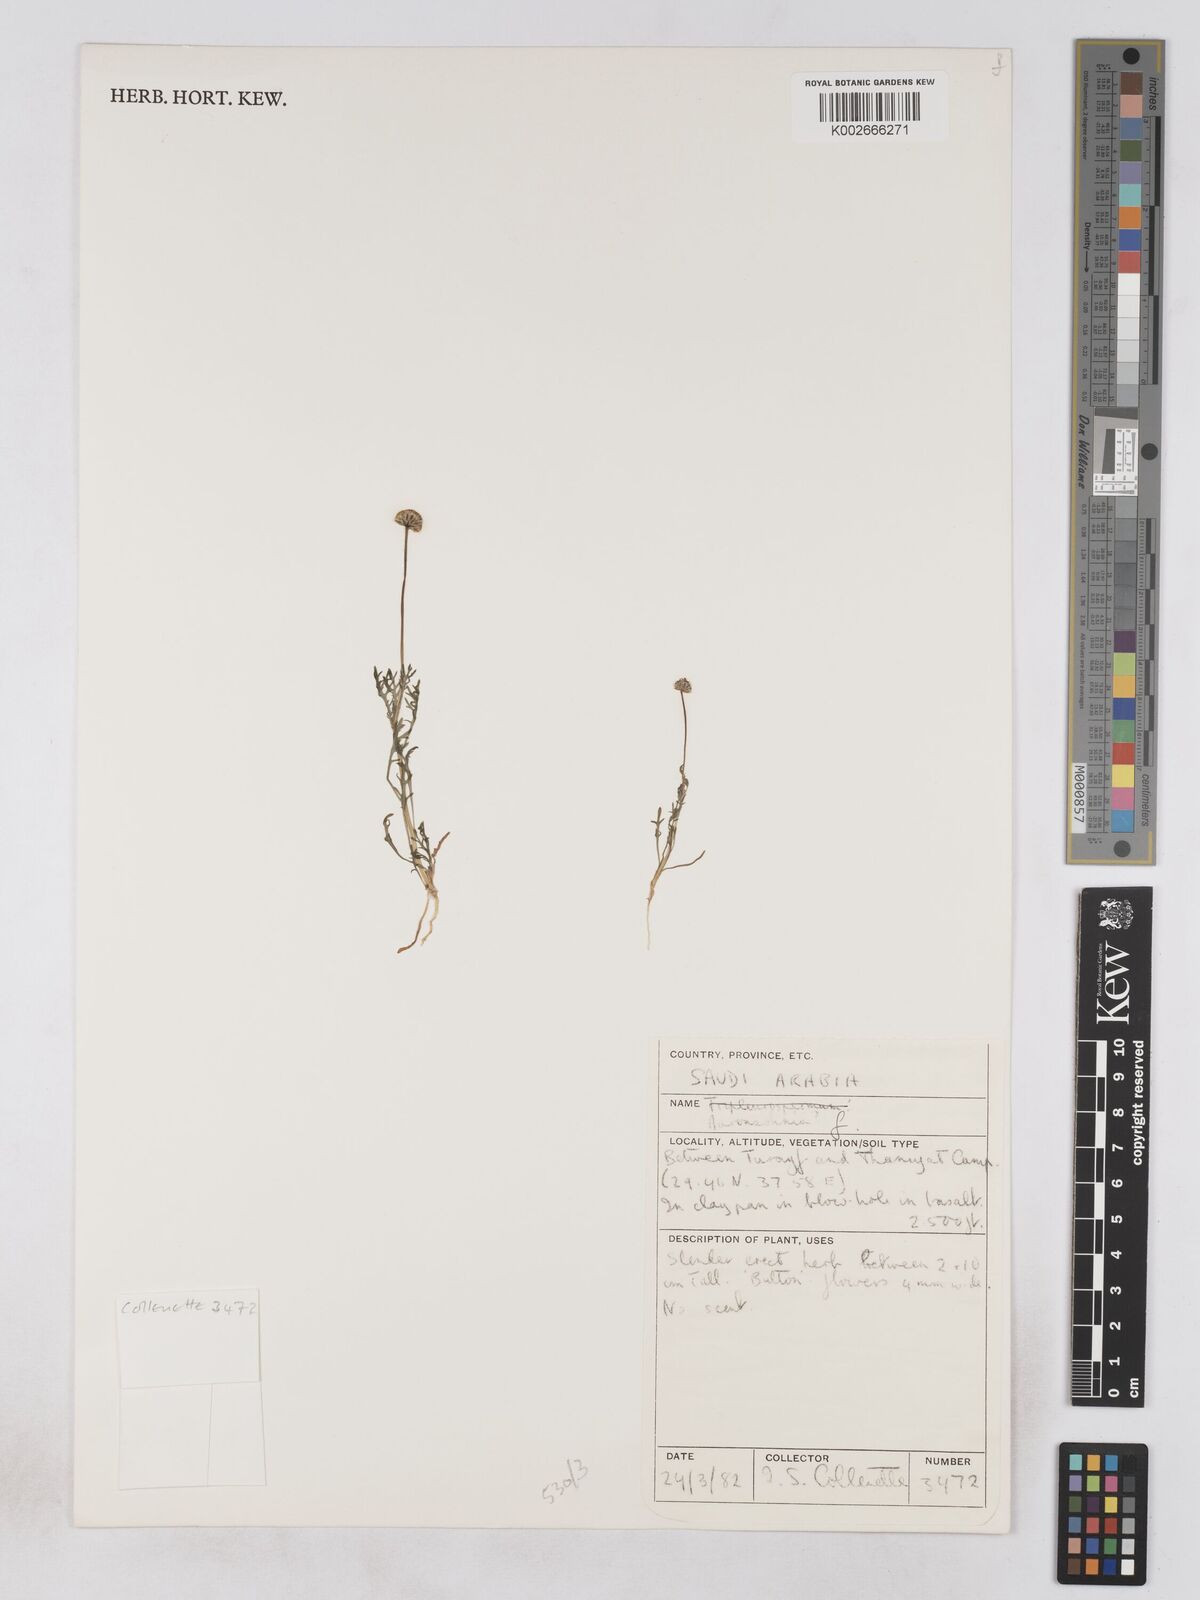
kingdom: Plantae
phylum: Tracheophyta
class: Magnoliopsida
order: Asterales
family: Asteraceae
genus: Otoglyphis
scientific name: Otoglyphis
